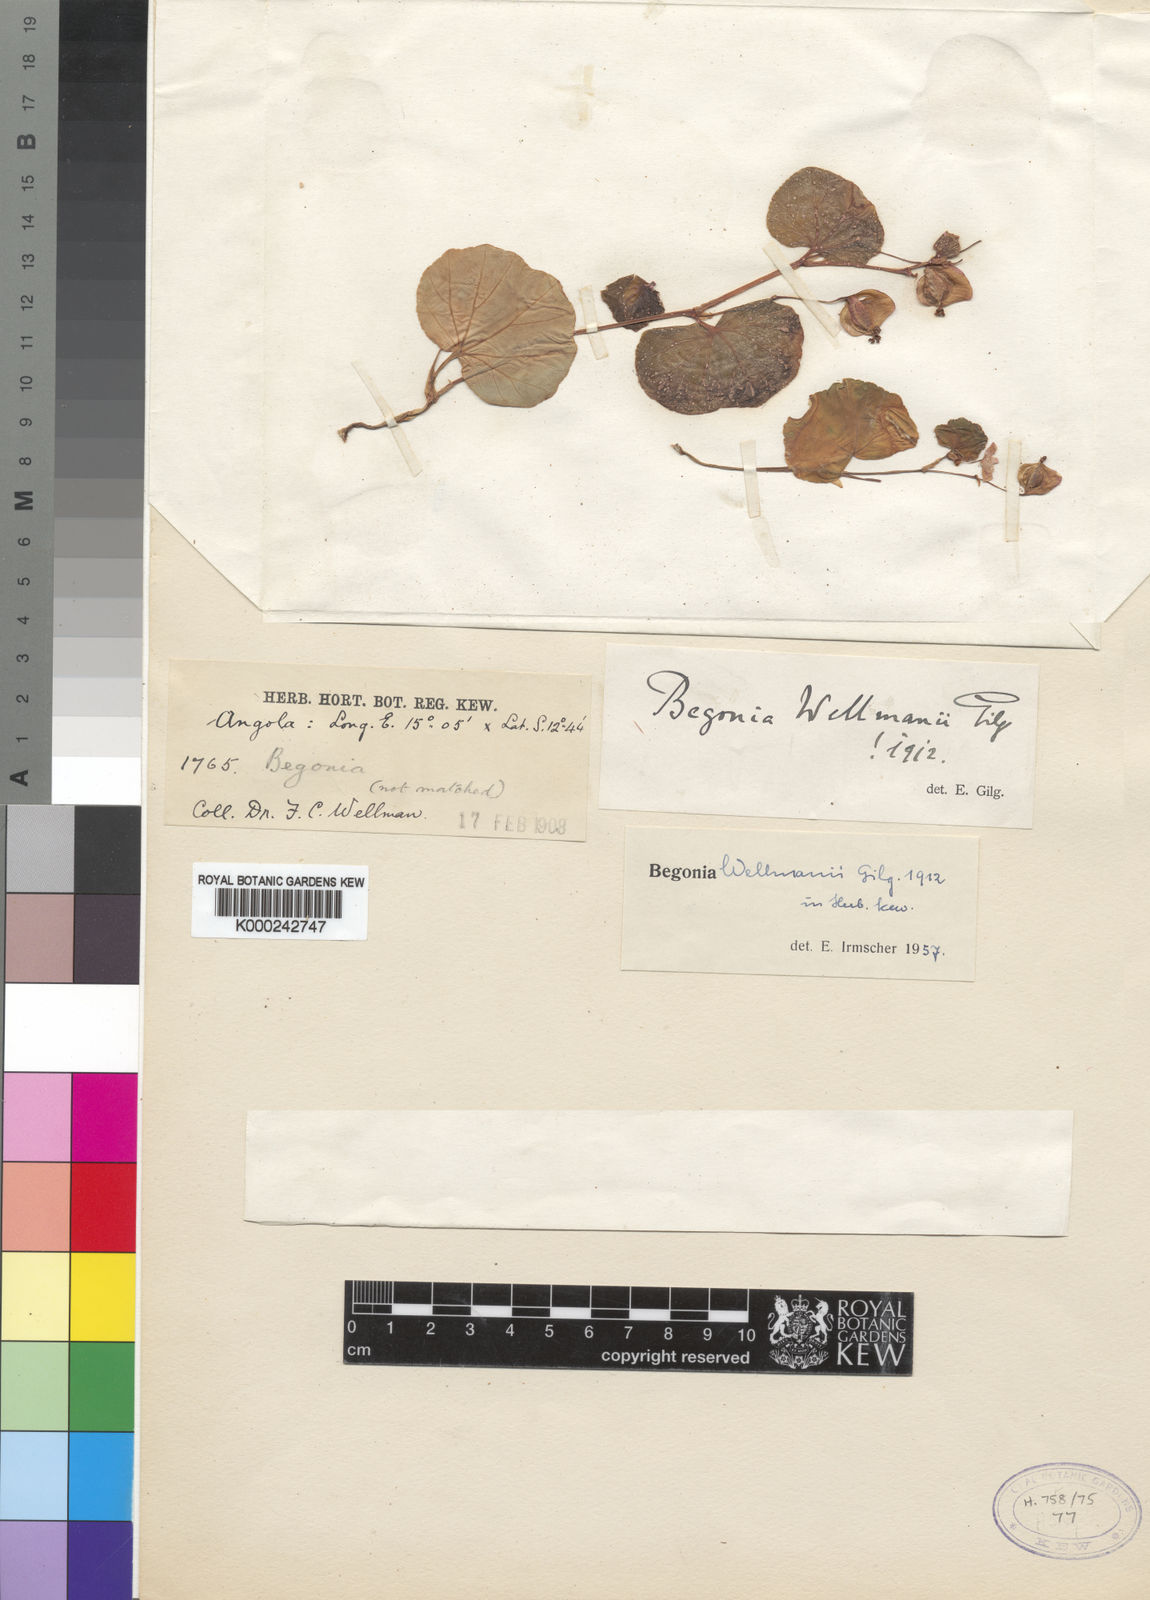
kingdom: Plantae
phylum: Tracheophyta
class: Magnoliopsida
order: Cucurbitales
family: Begoniaceae
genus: Begonia
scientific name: Begonia princeae
